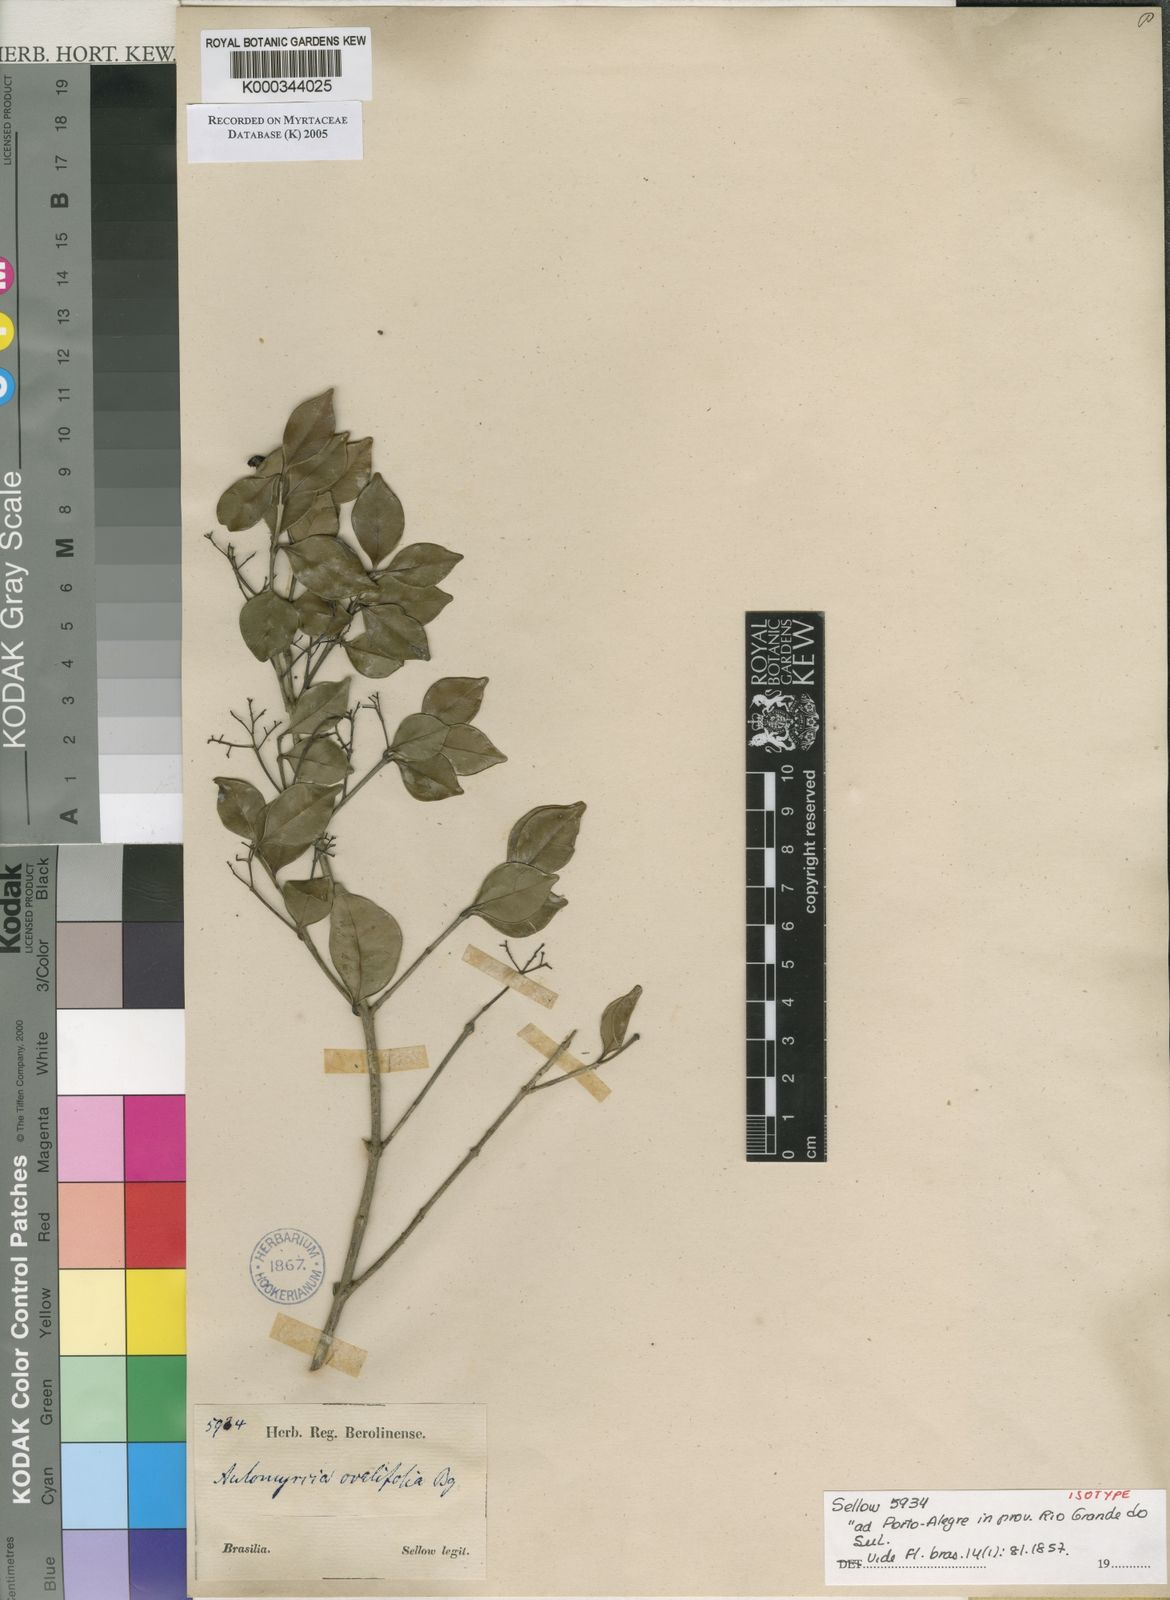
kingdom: Plantae
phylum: Tracheophyta
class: Magnoliopsida
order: Myrtales
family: Myrtaceae
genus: Myrcia
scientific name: Myrcia multiflora
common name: Pedra hume
